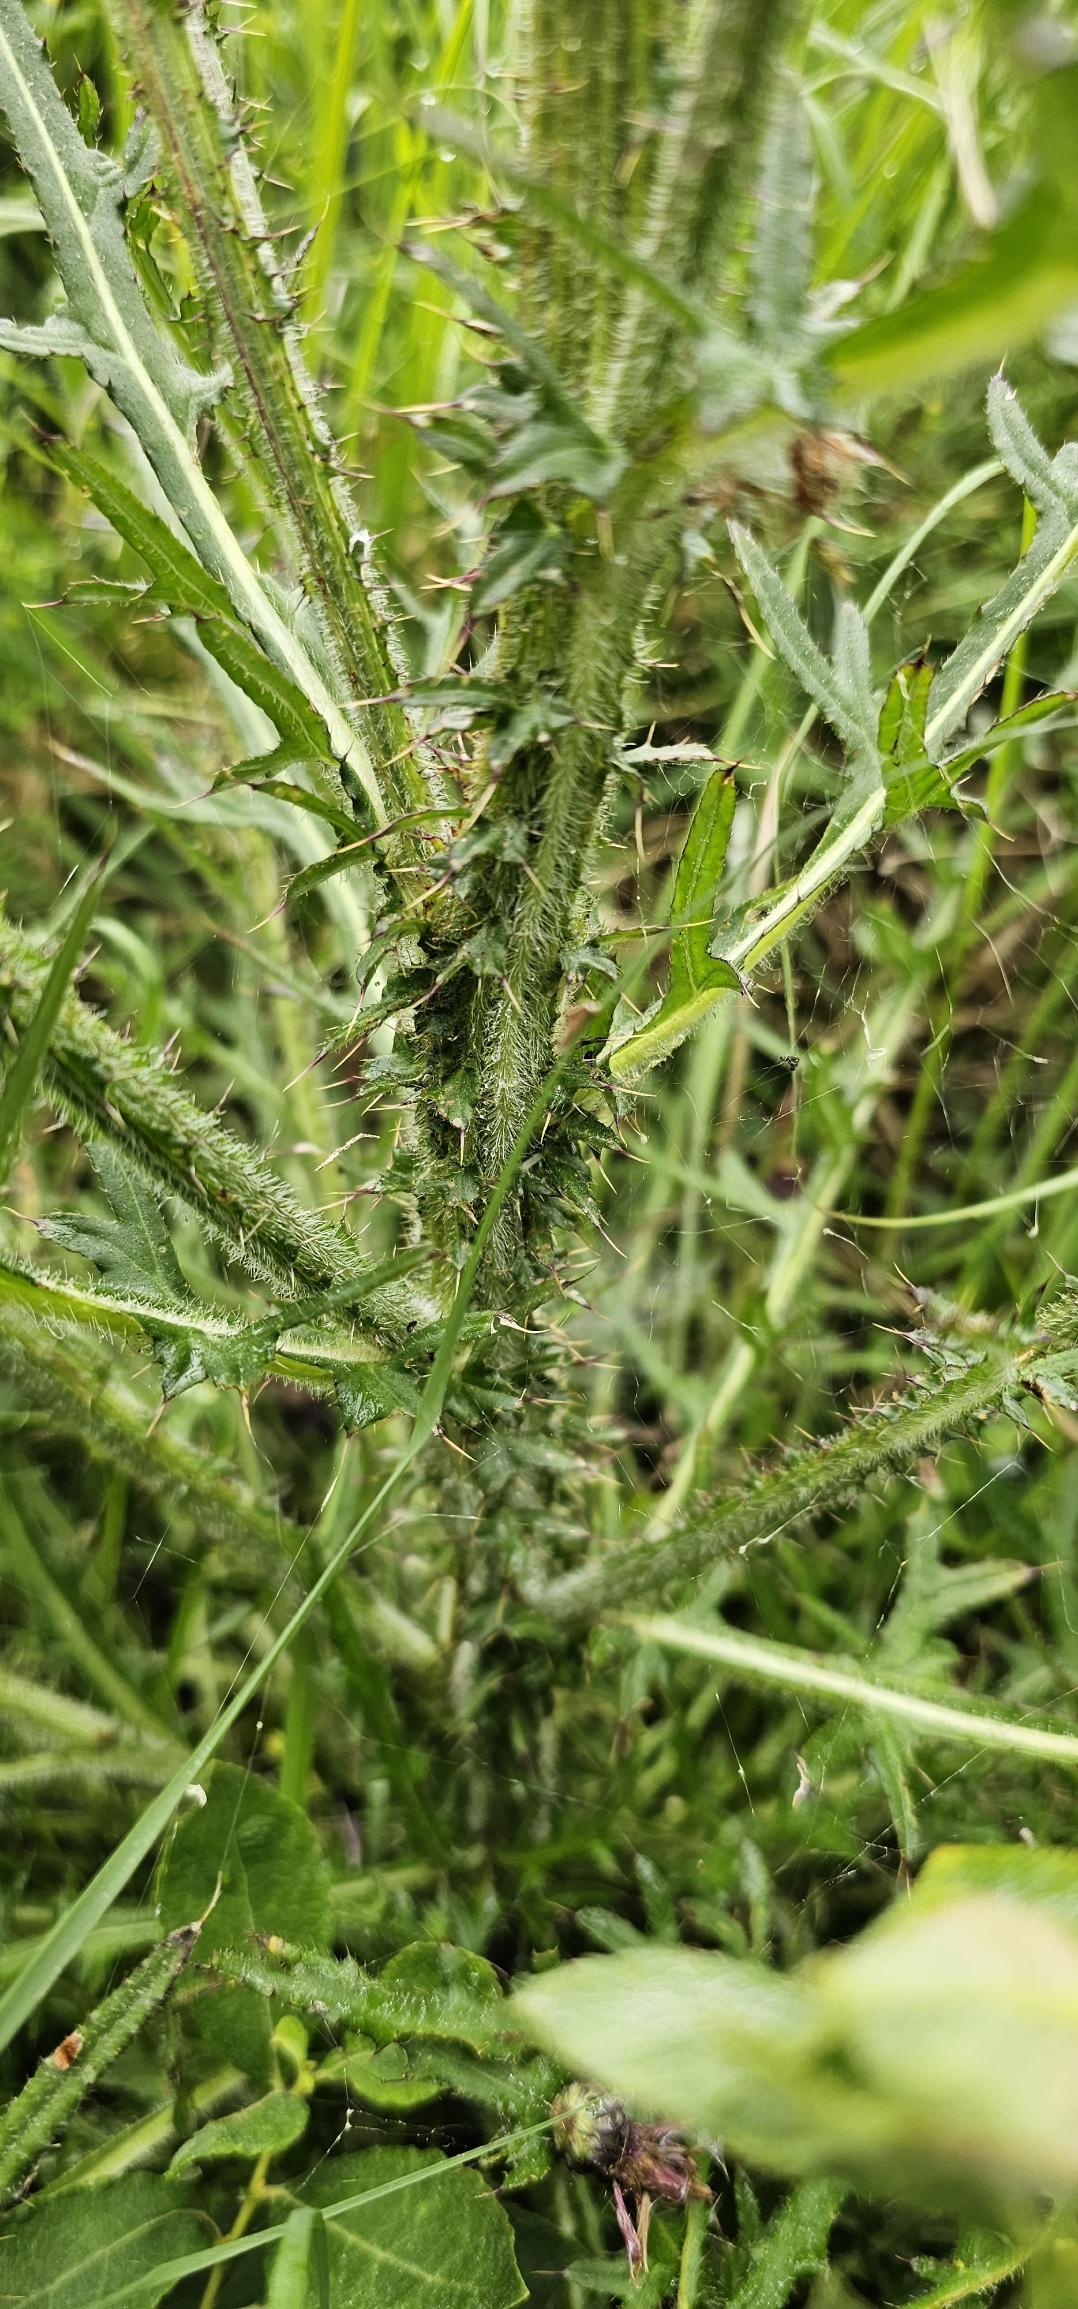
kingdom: Plantae
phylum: Tracheophyta
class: Magnoliopsida
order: Asterales
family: Asteraceae
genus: Cirsium
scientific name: Cirsium palustre
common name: Kær-tidsel
